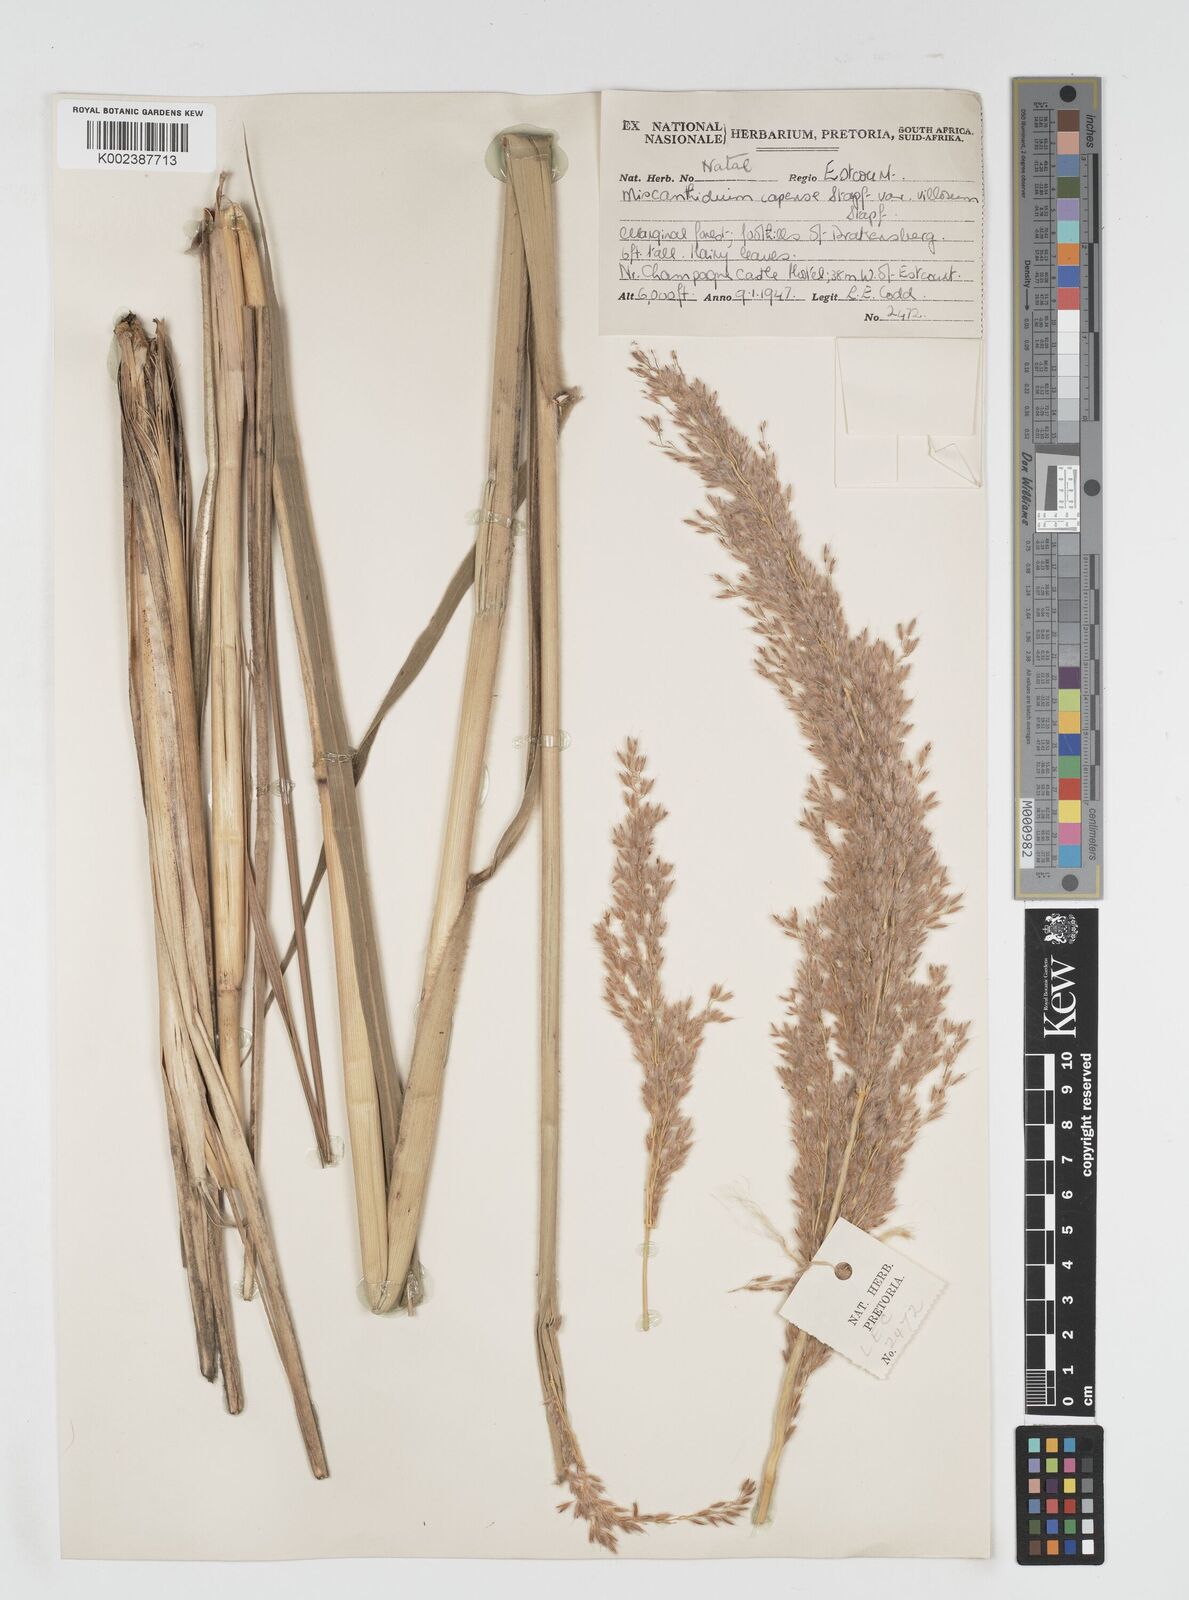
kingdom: Plantae
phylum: Tracheophyta
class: Liliopsida
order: Poales
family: Poaceae
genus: Miscanthus
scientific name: Miscanthus ecklonii
